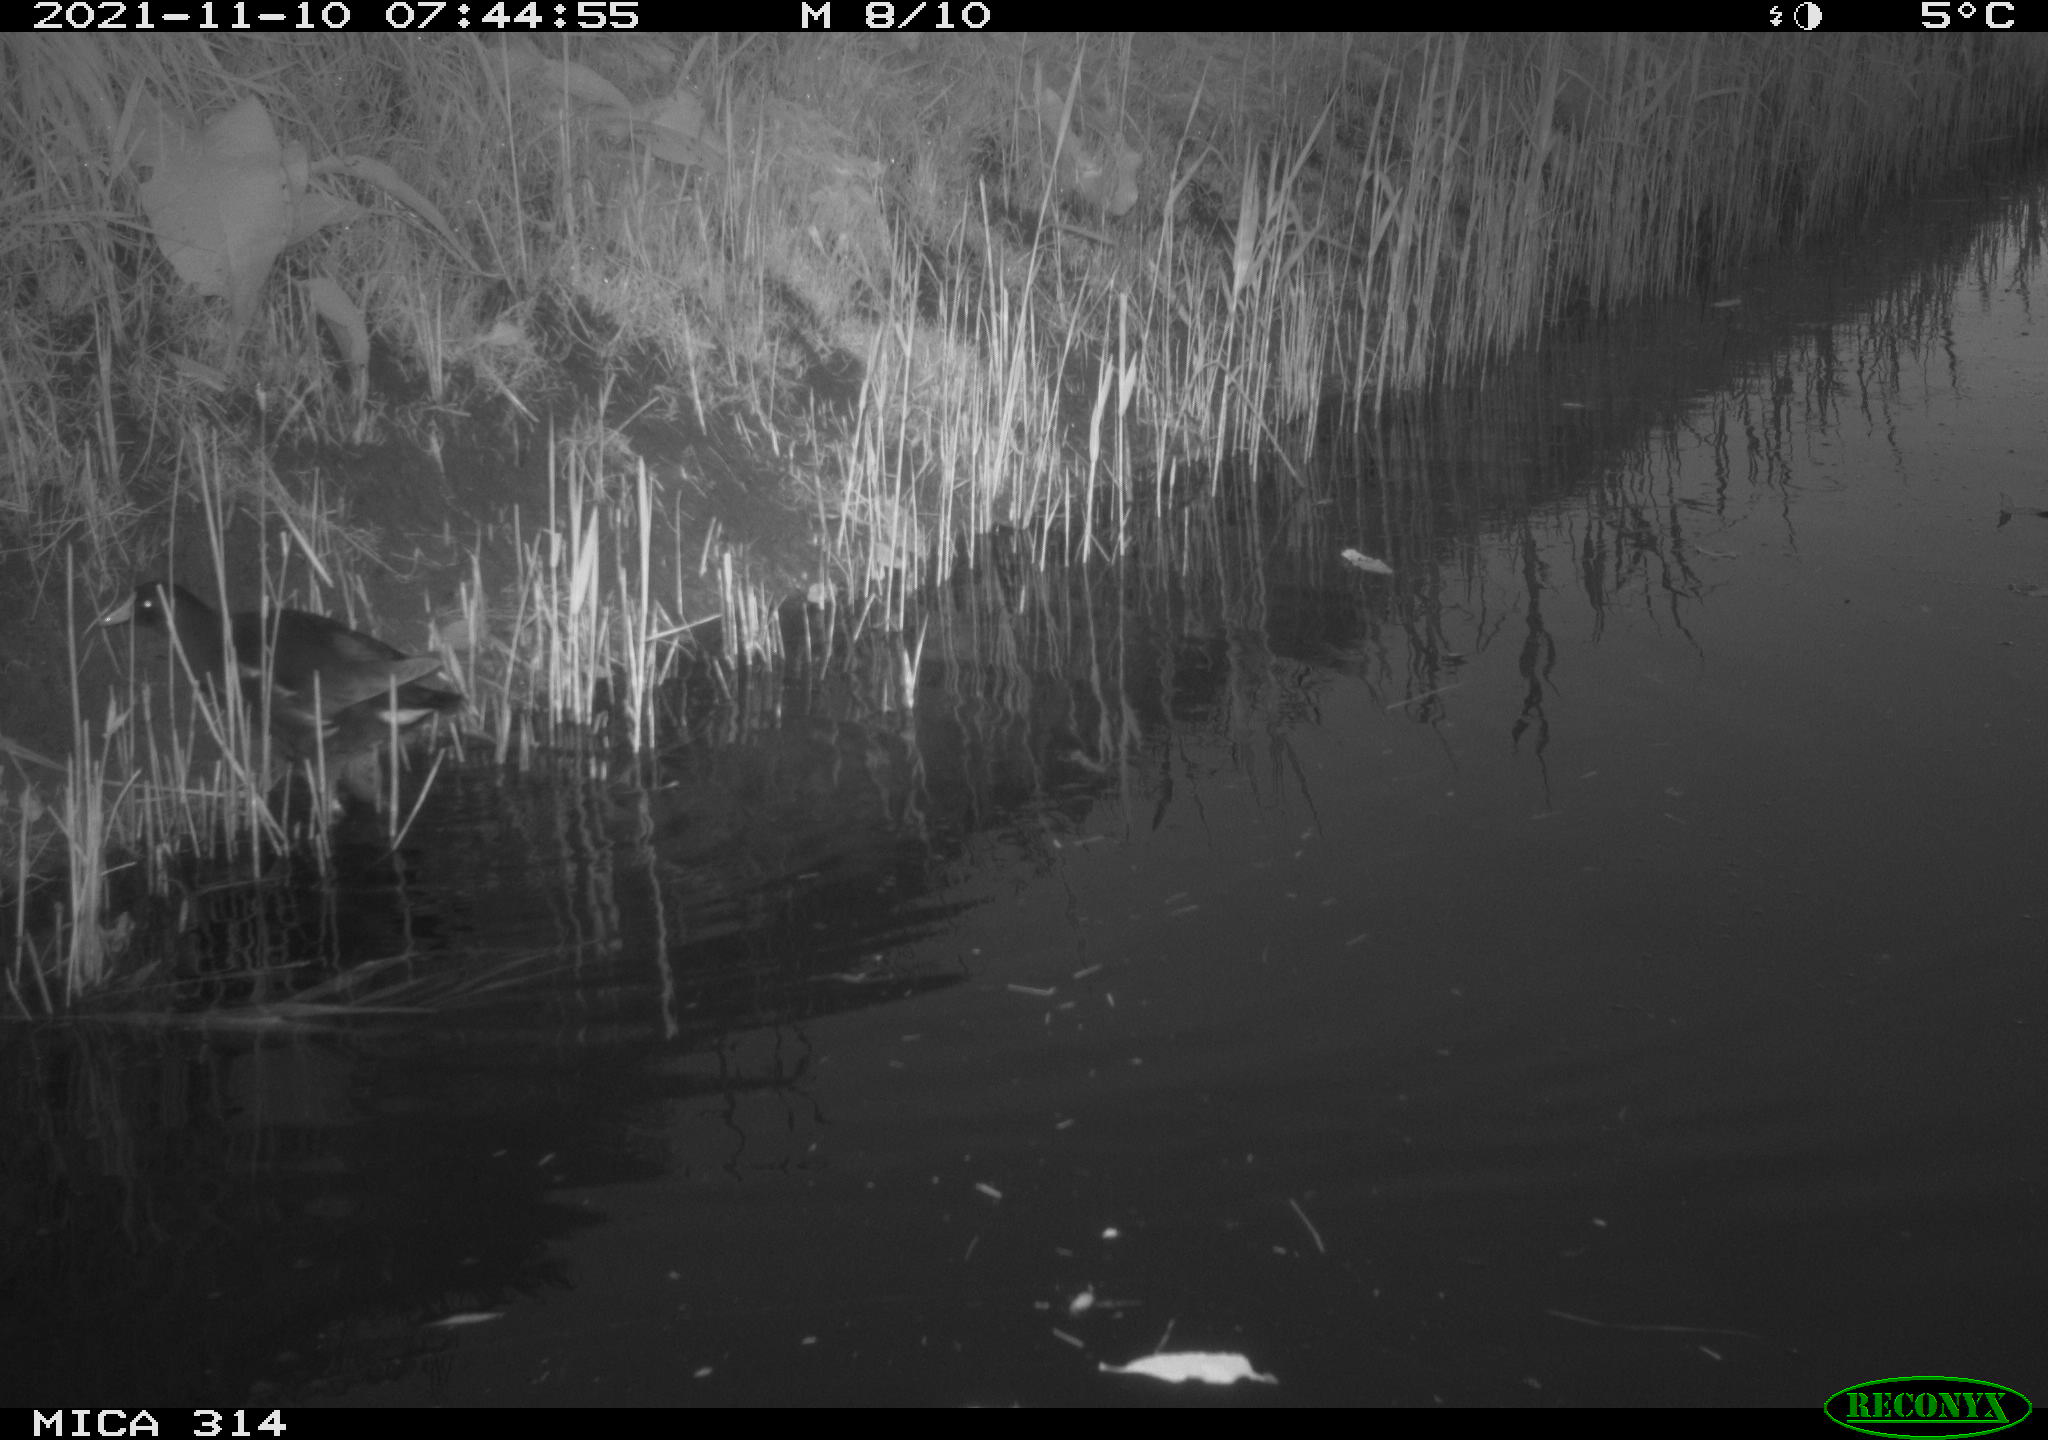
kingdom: Animalia
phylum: Chordata
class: Aves
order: Gruiformes
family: Rallidae
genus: Gallinula
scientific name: Gallinula chloropus
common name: Common moorhen
